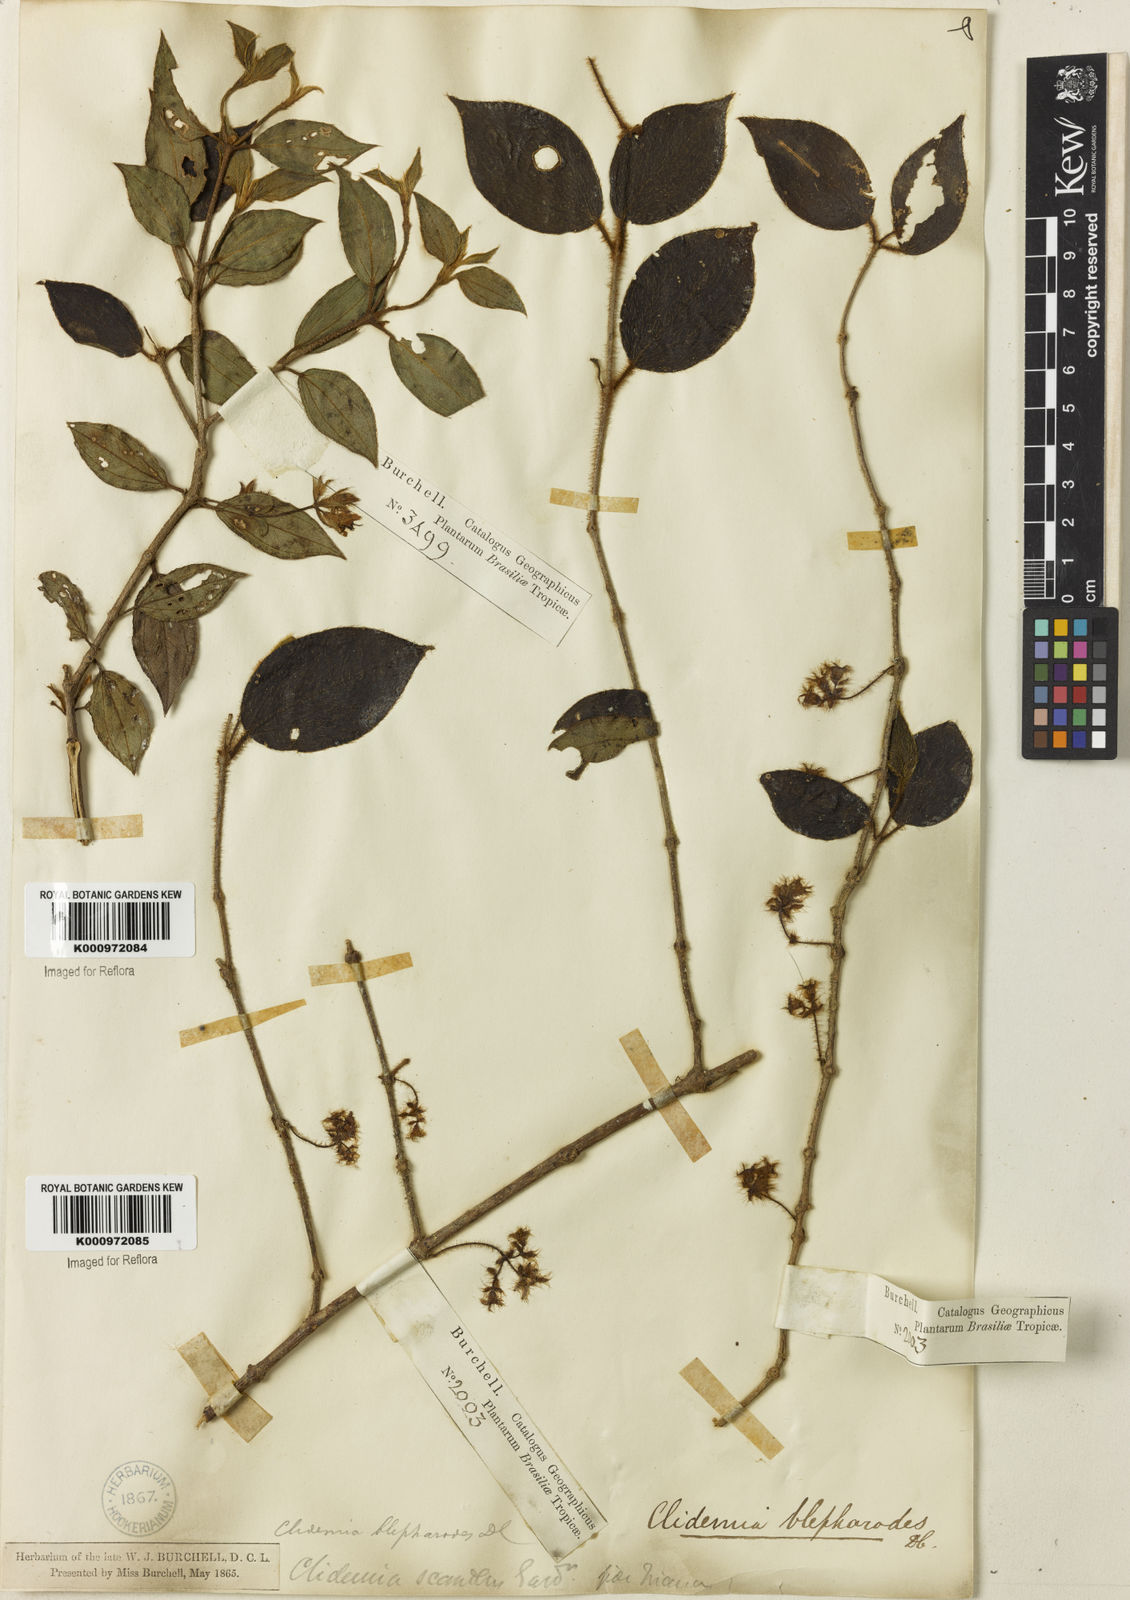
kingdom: Plantae
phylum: Tracheophyta
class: Magnoliopsida
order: Myrtales
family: Melastomataceae
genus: Miconia
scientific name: Miconia
